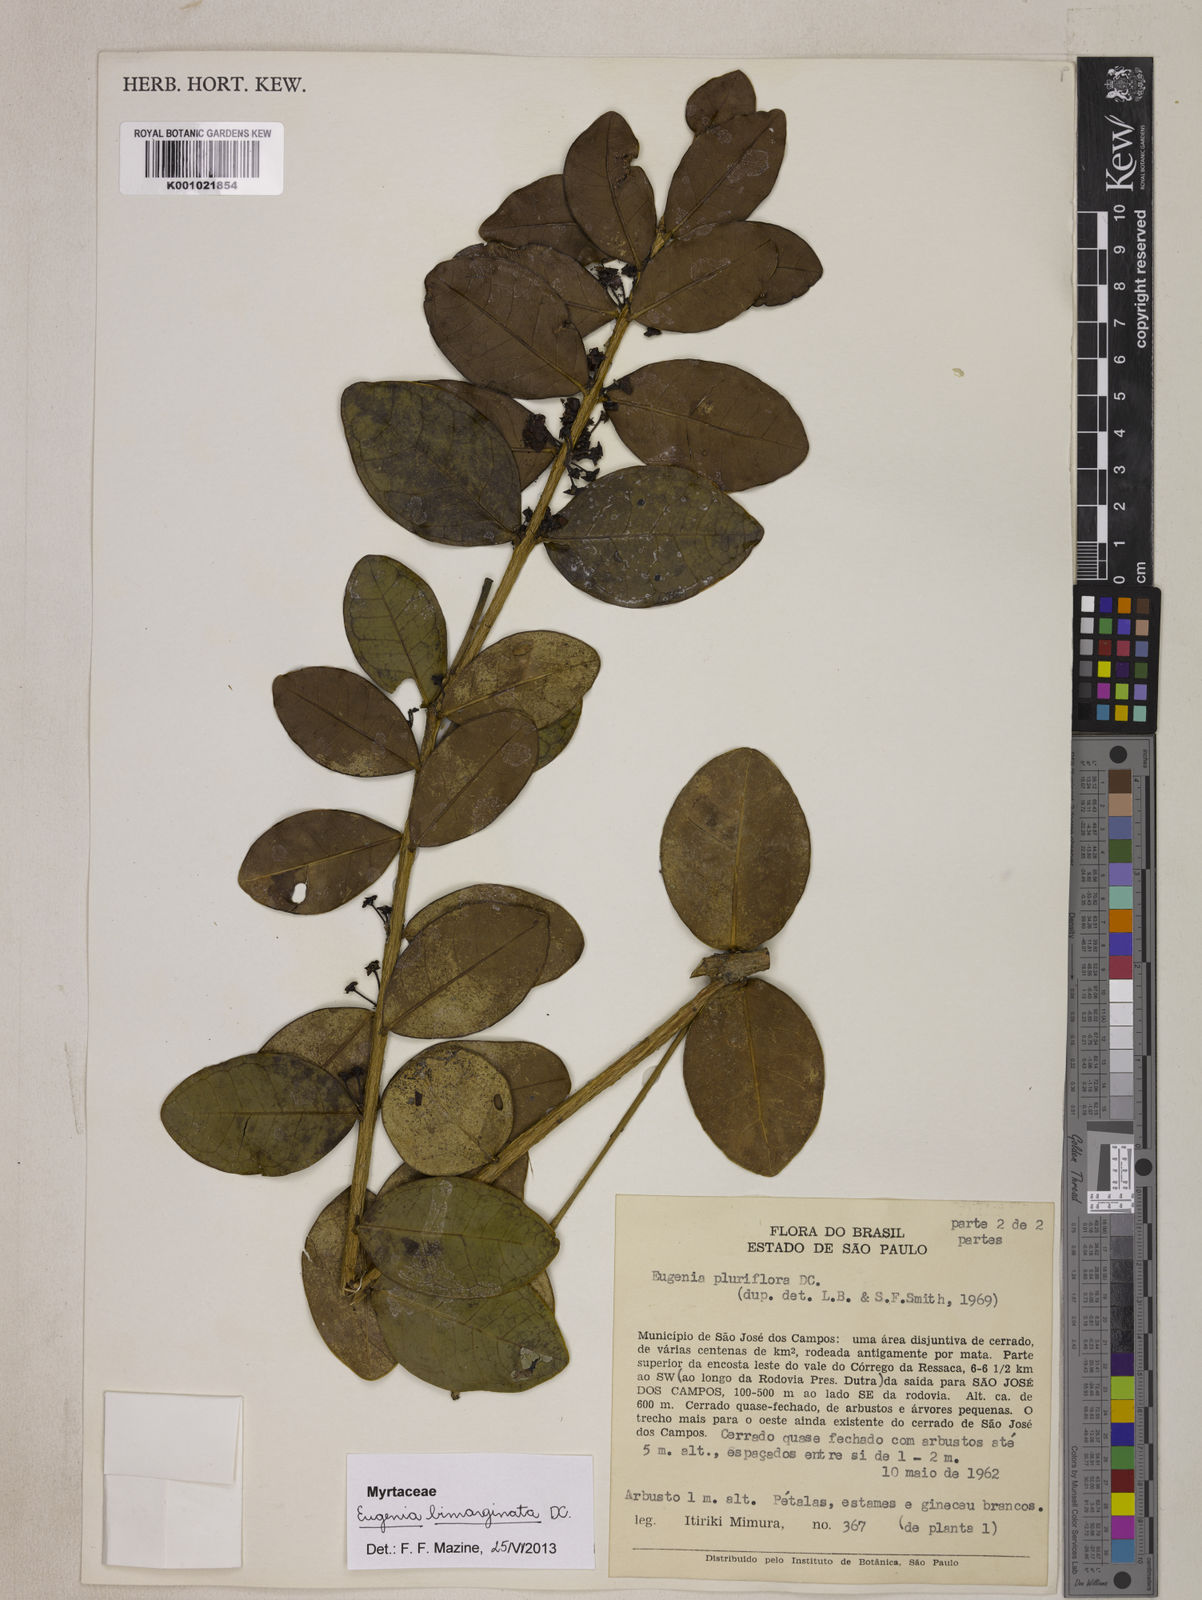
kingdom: Plantae
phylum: Tracheophyta
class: Magnoliopsida
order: Myrtales
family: Myrtaceae
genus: Eugenia
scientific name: Eugenia bimarginata
